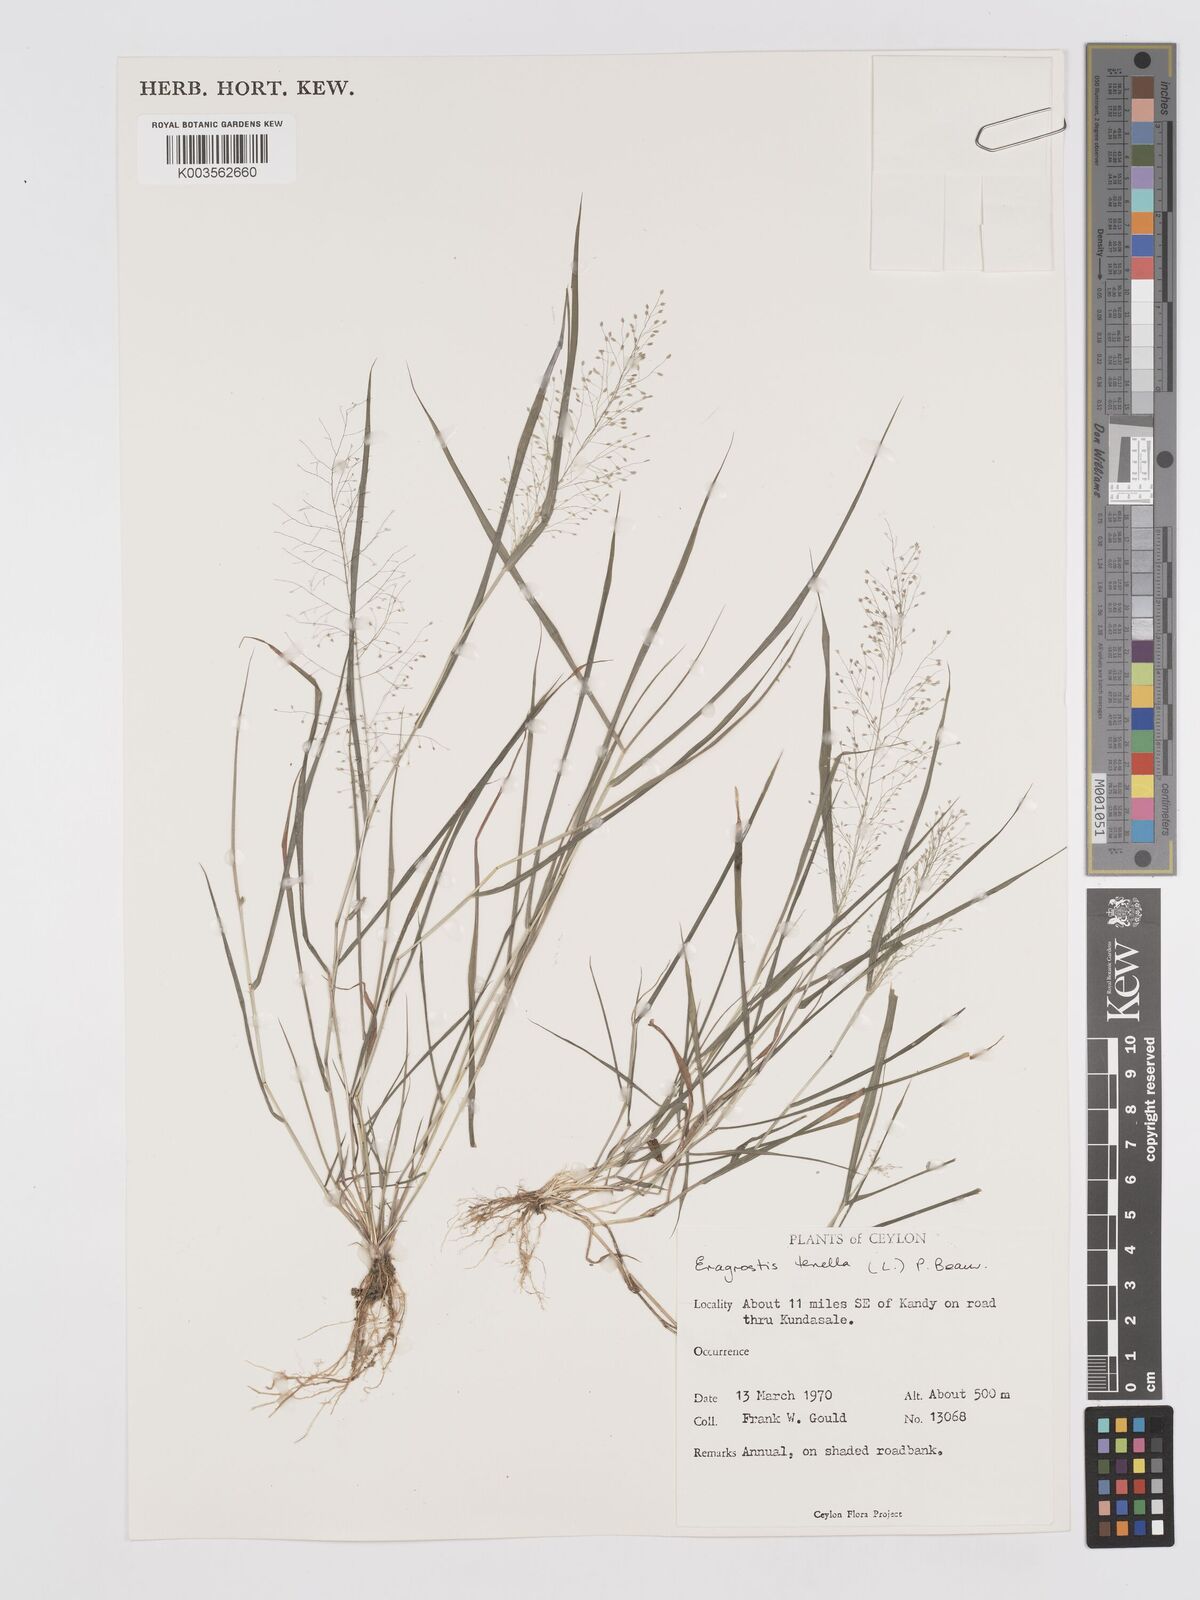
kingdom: Plantae
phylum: Tracheophyta
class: Liliopsida
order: Poales
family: Poaceae
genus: Eragrostis
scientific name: Eragrostis tenella
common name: Japanese lovegrass
